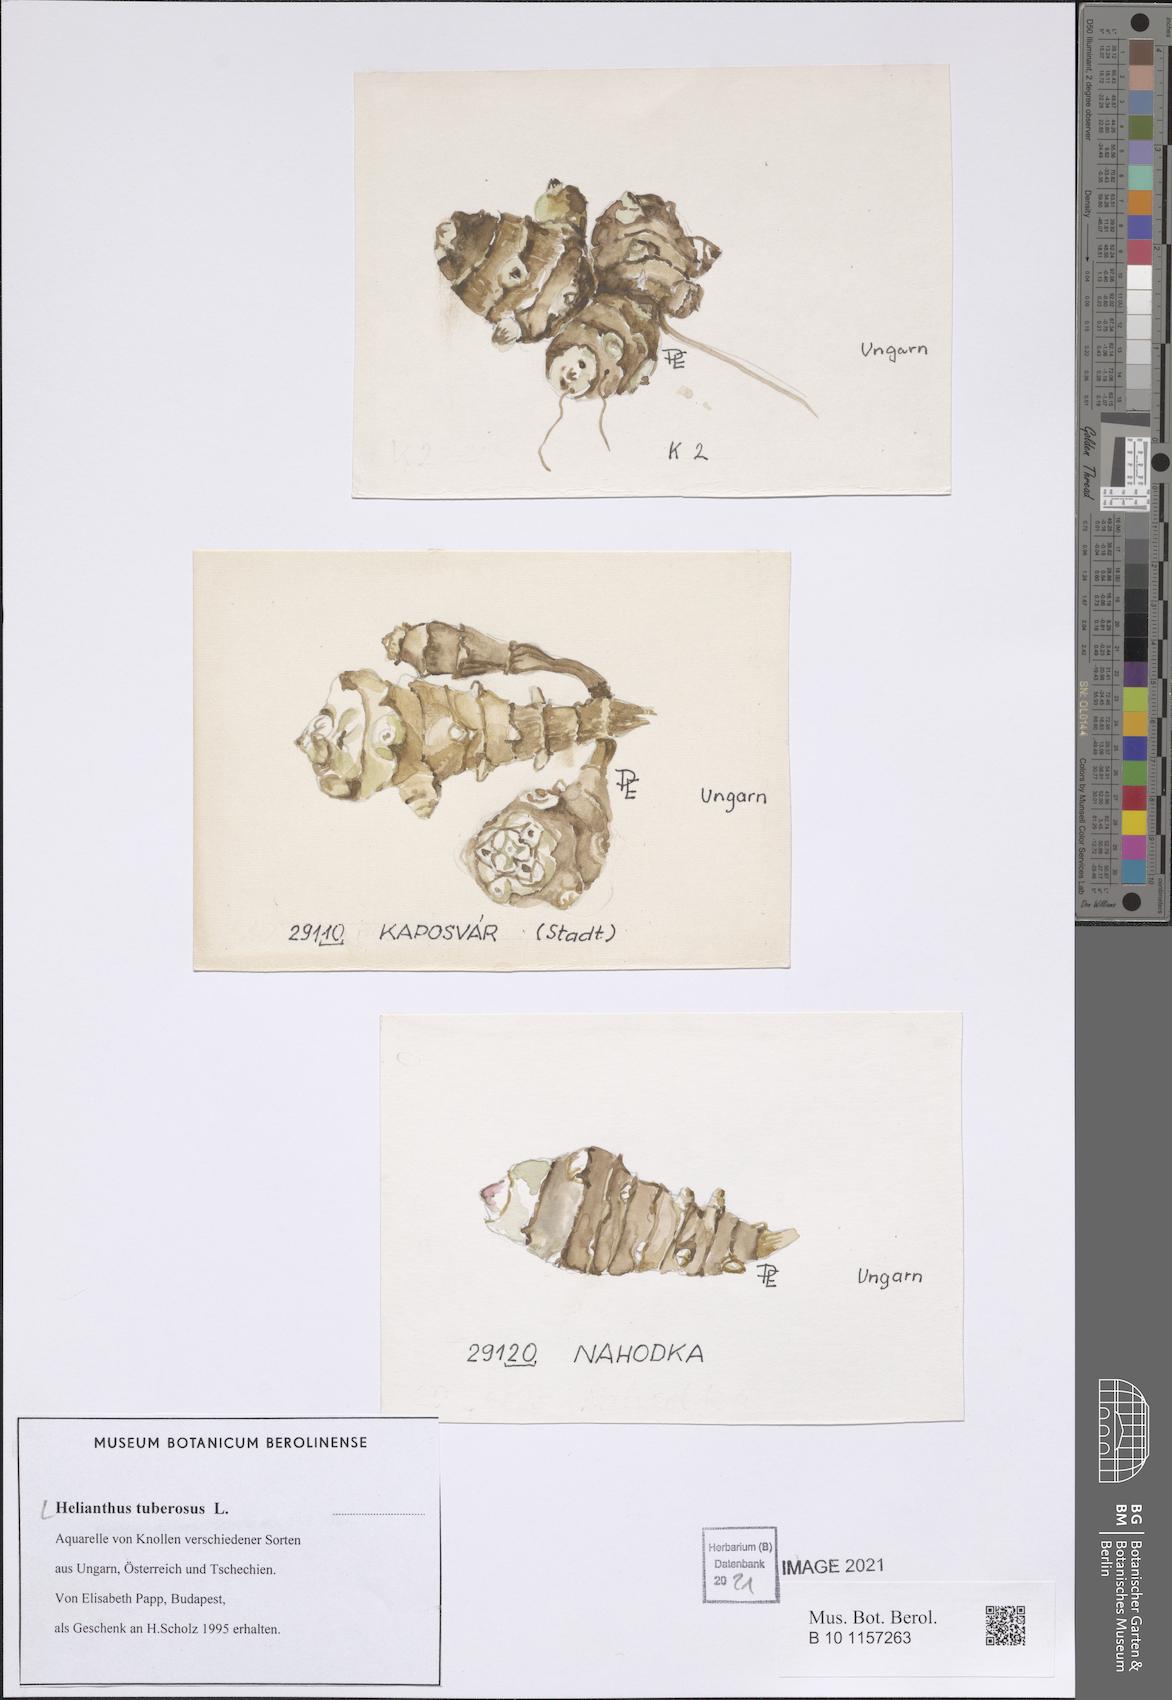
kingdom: Plantae
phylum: Tracheophyta
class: Magnoliopsida
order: Asterales
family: Asteraceae
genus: Helianthus
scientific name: Helianthus tuberosus
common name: Jerusalem artichoke
